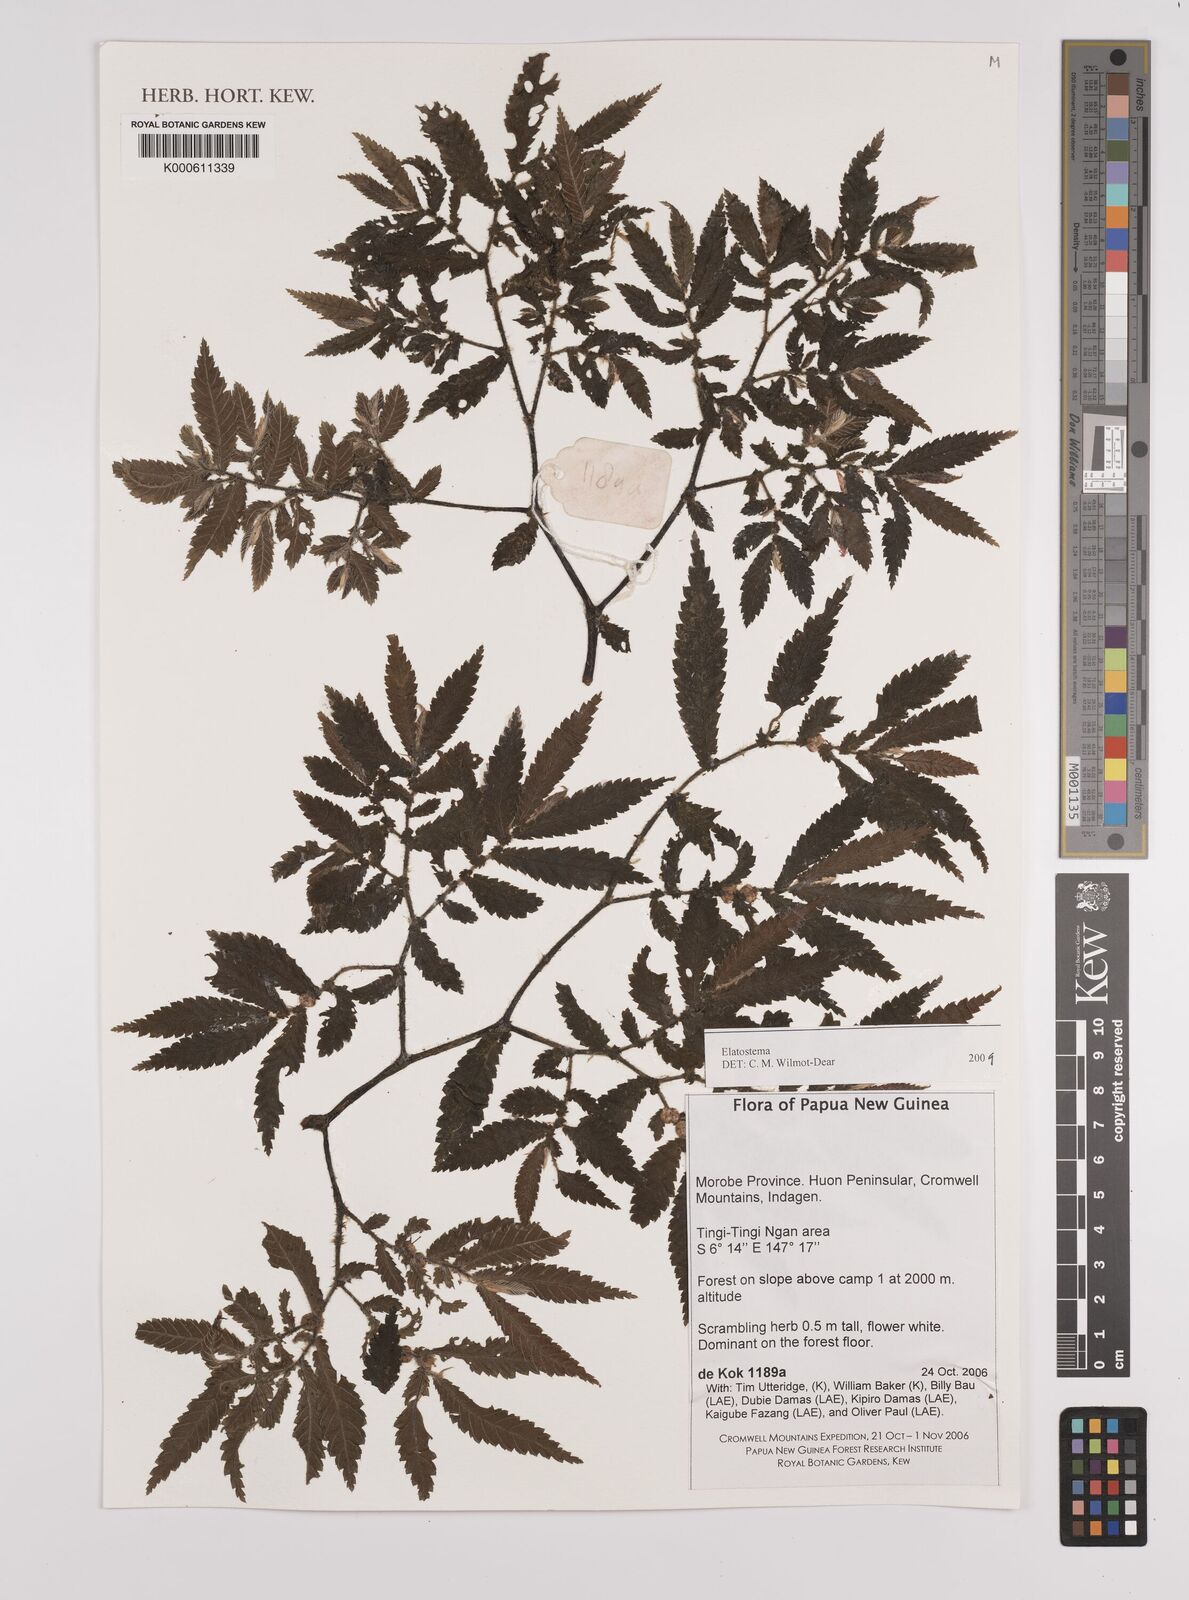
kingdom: Plantae
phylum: Tracheophyta
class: Magnoliopsida
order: Rosales
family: Urticaceae
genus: Elatostema
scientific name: Elatostema
